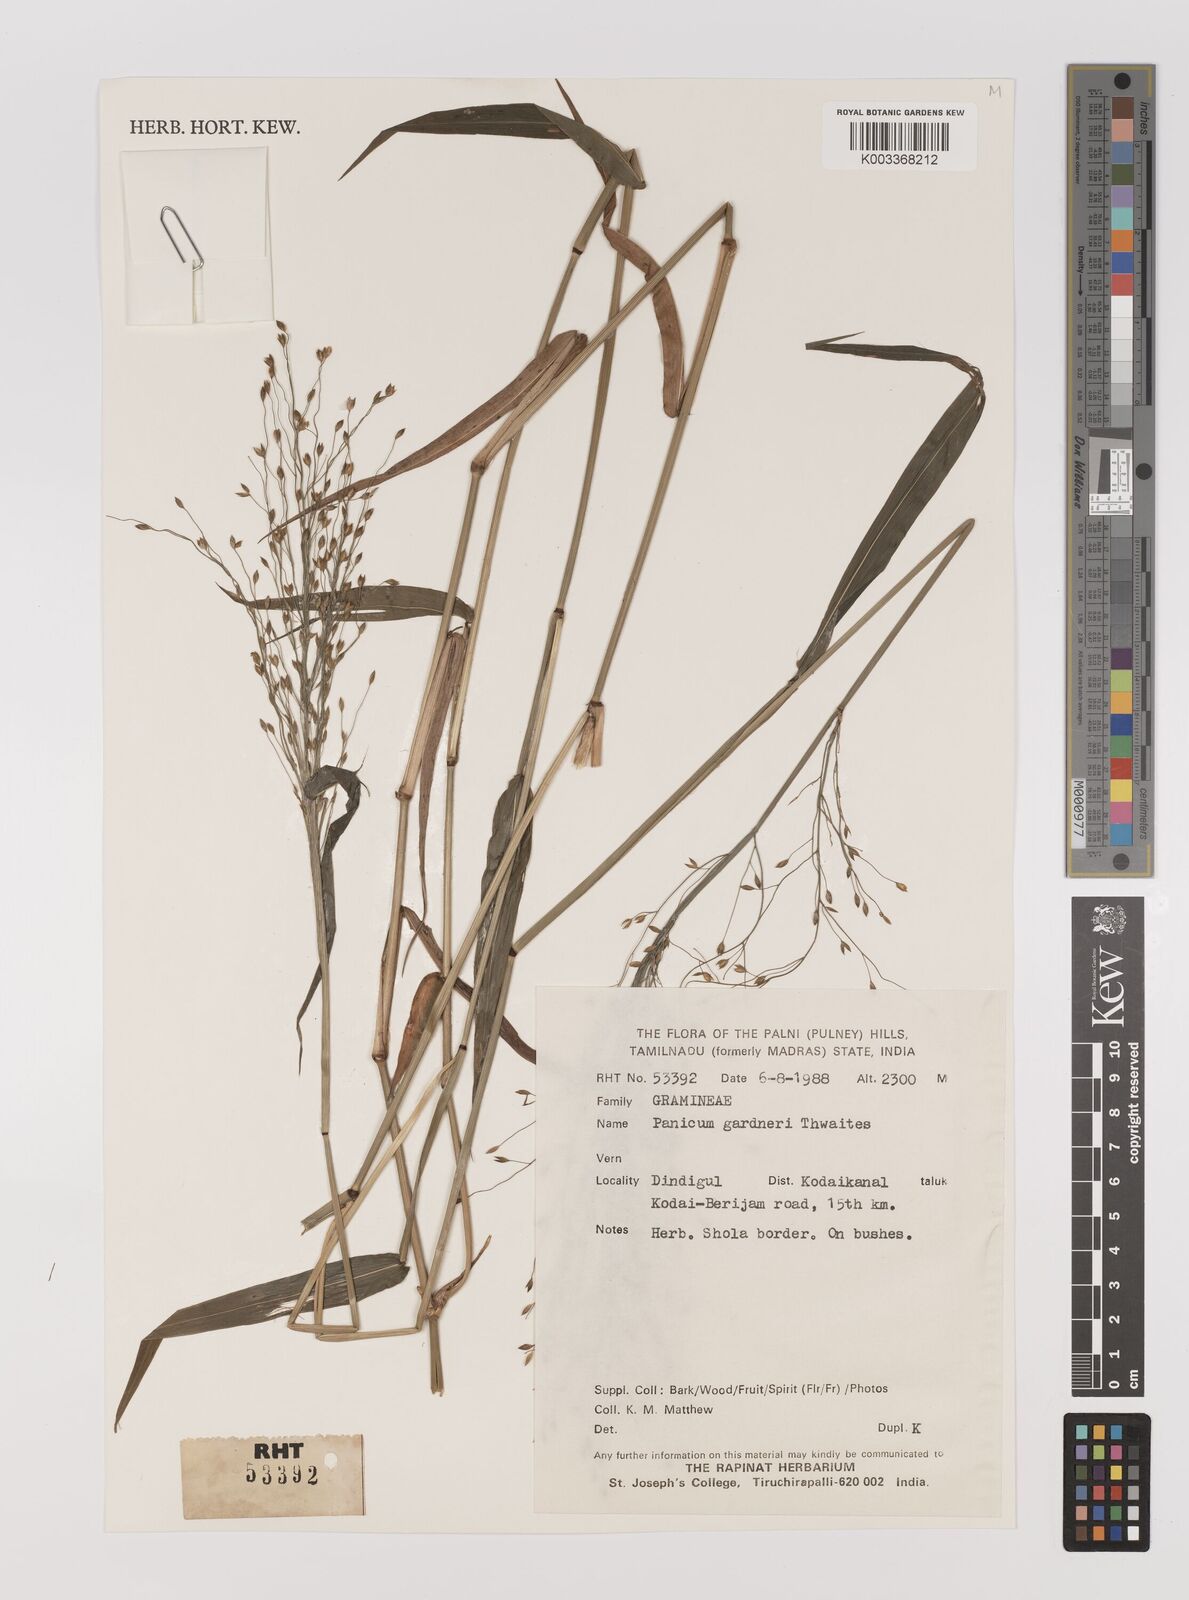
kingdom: Plantae
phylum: Tracheophyta
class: Liliopsida
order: Poales
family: Poaceae
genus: Panicum
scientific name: Panicum gardneri
